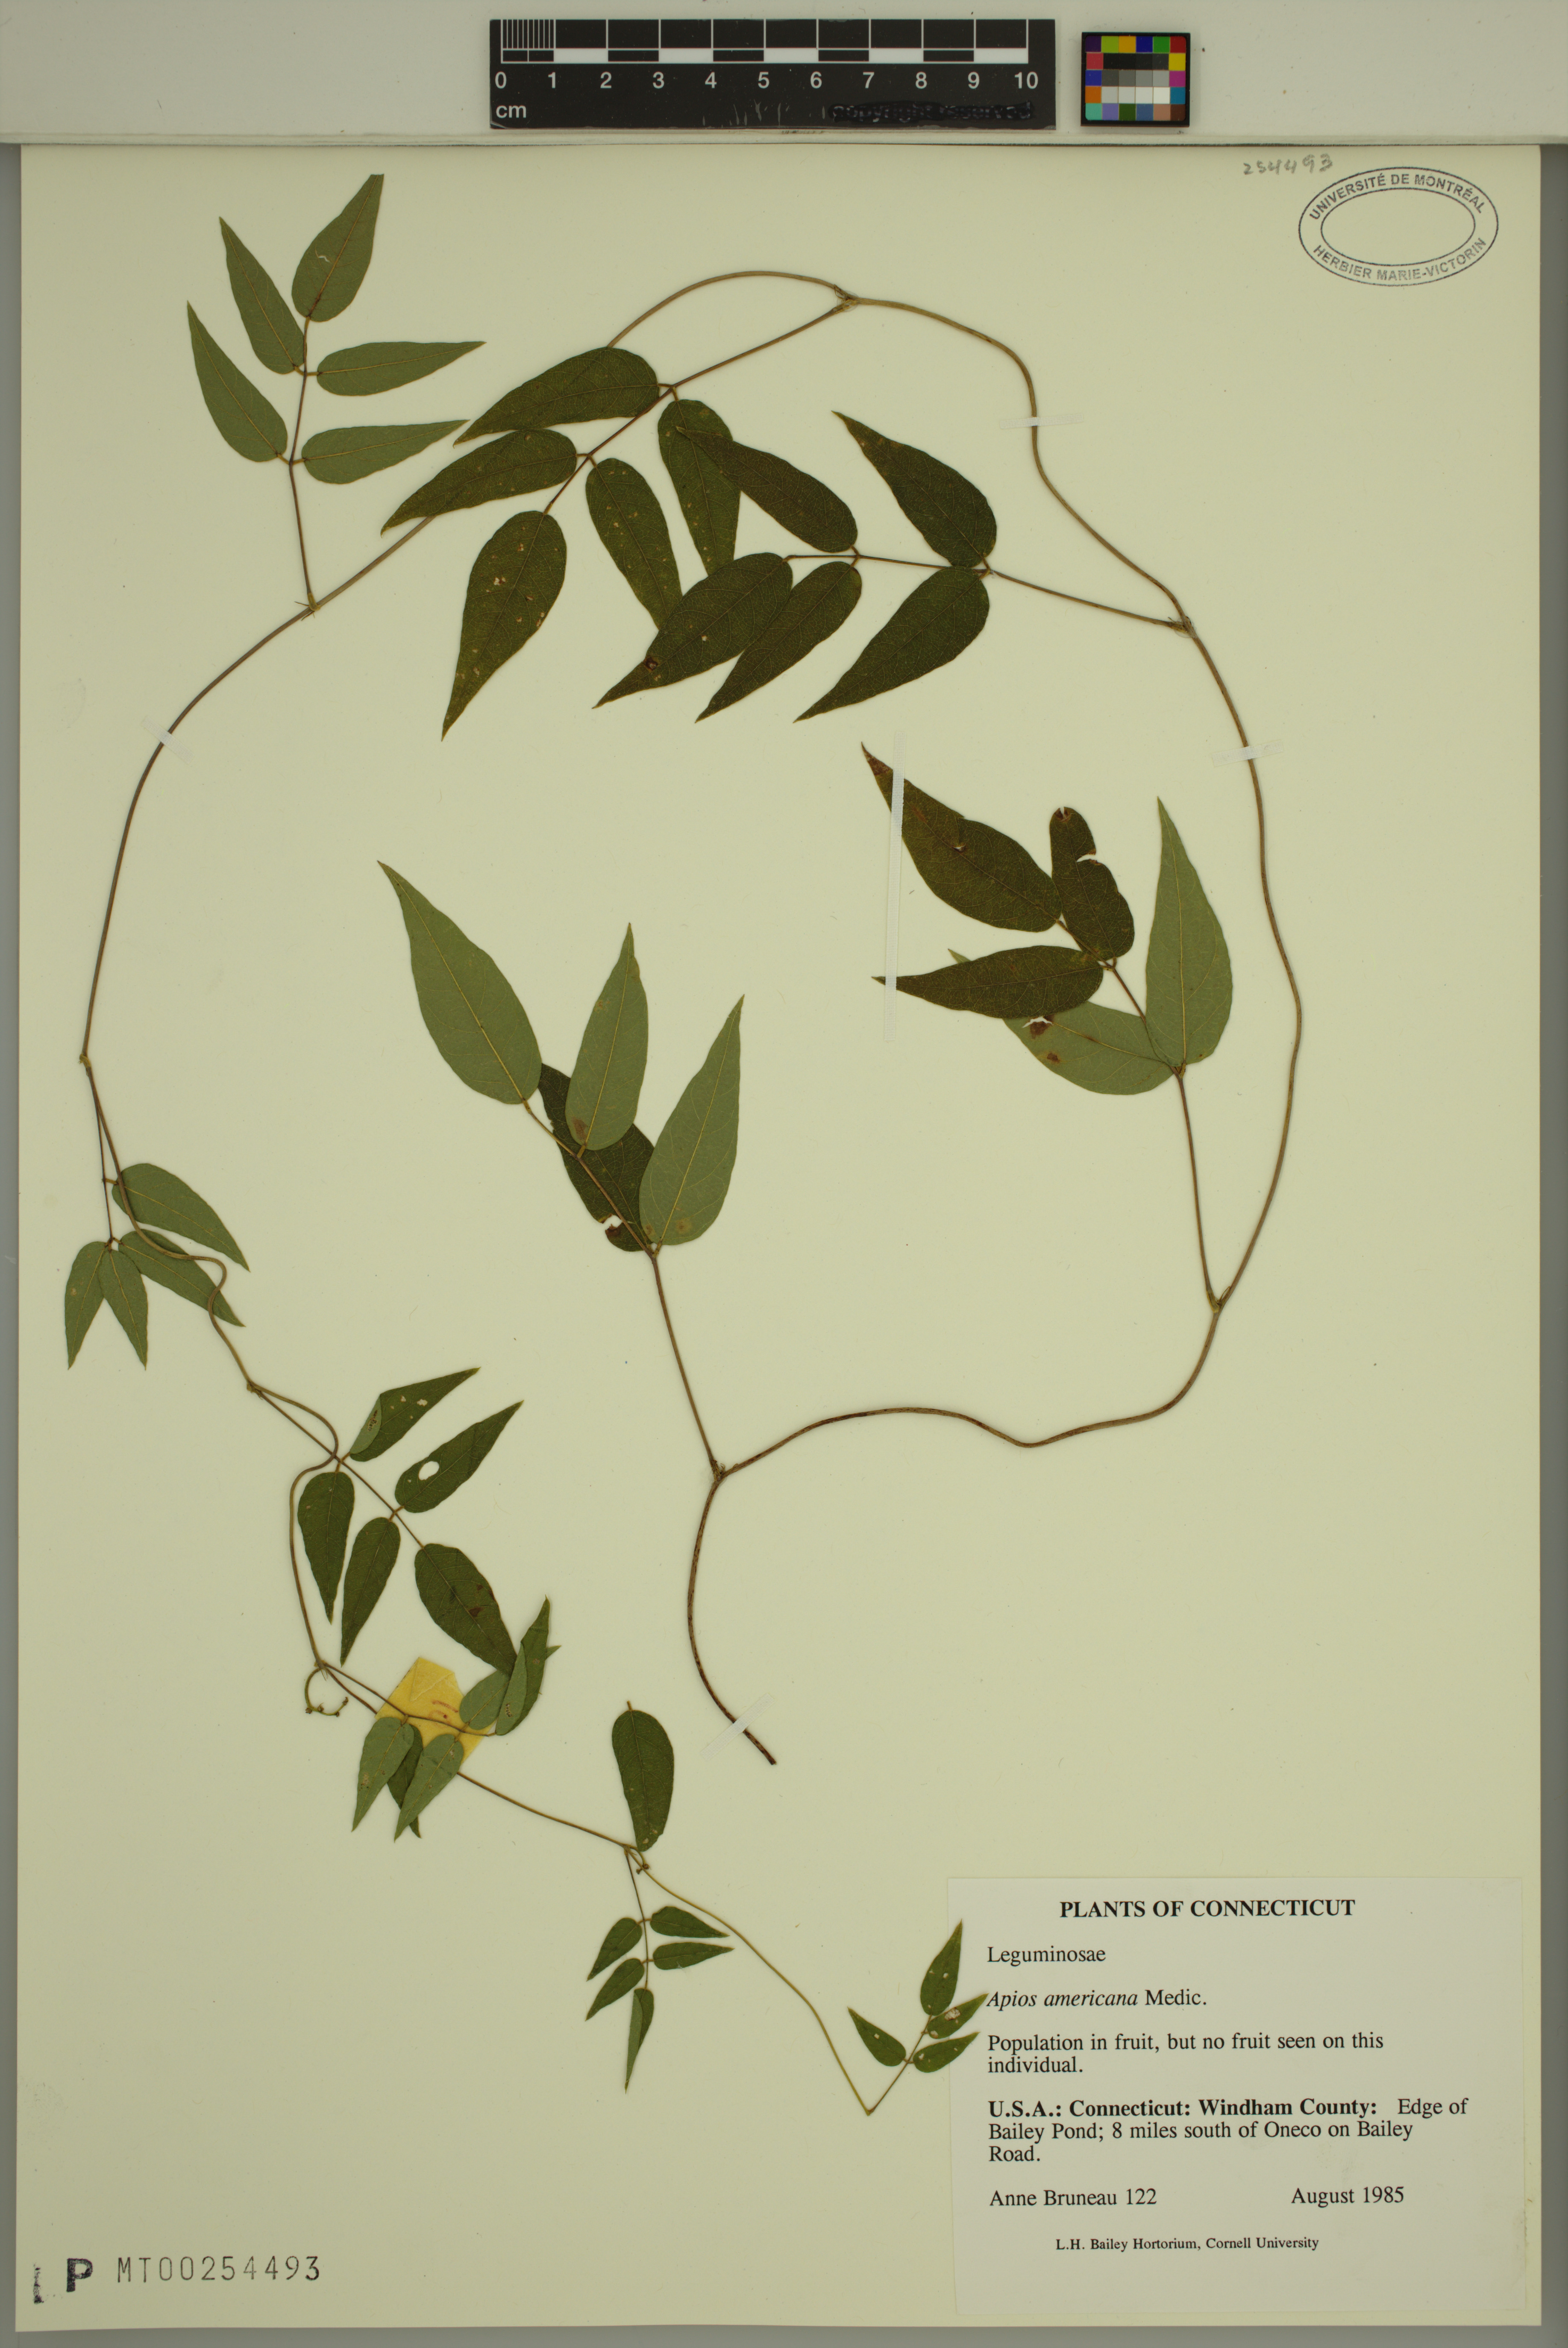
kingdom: Plantae
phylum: Tracheophyta
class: Magnoliopsida
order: Fabales
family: Fabaceae
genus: Apios
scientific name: Apios americana
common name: American potato-bean
